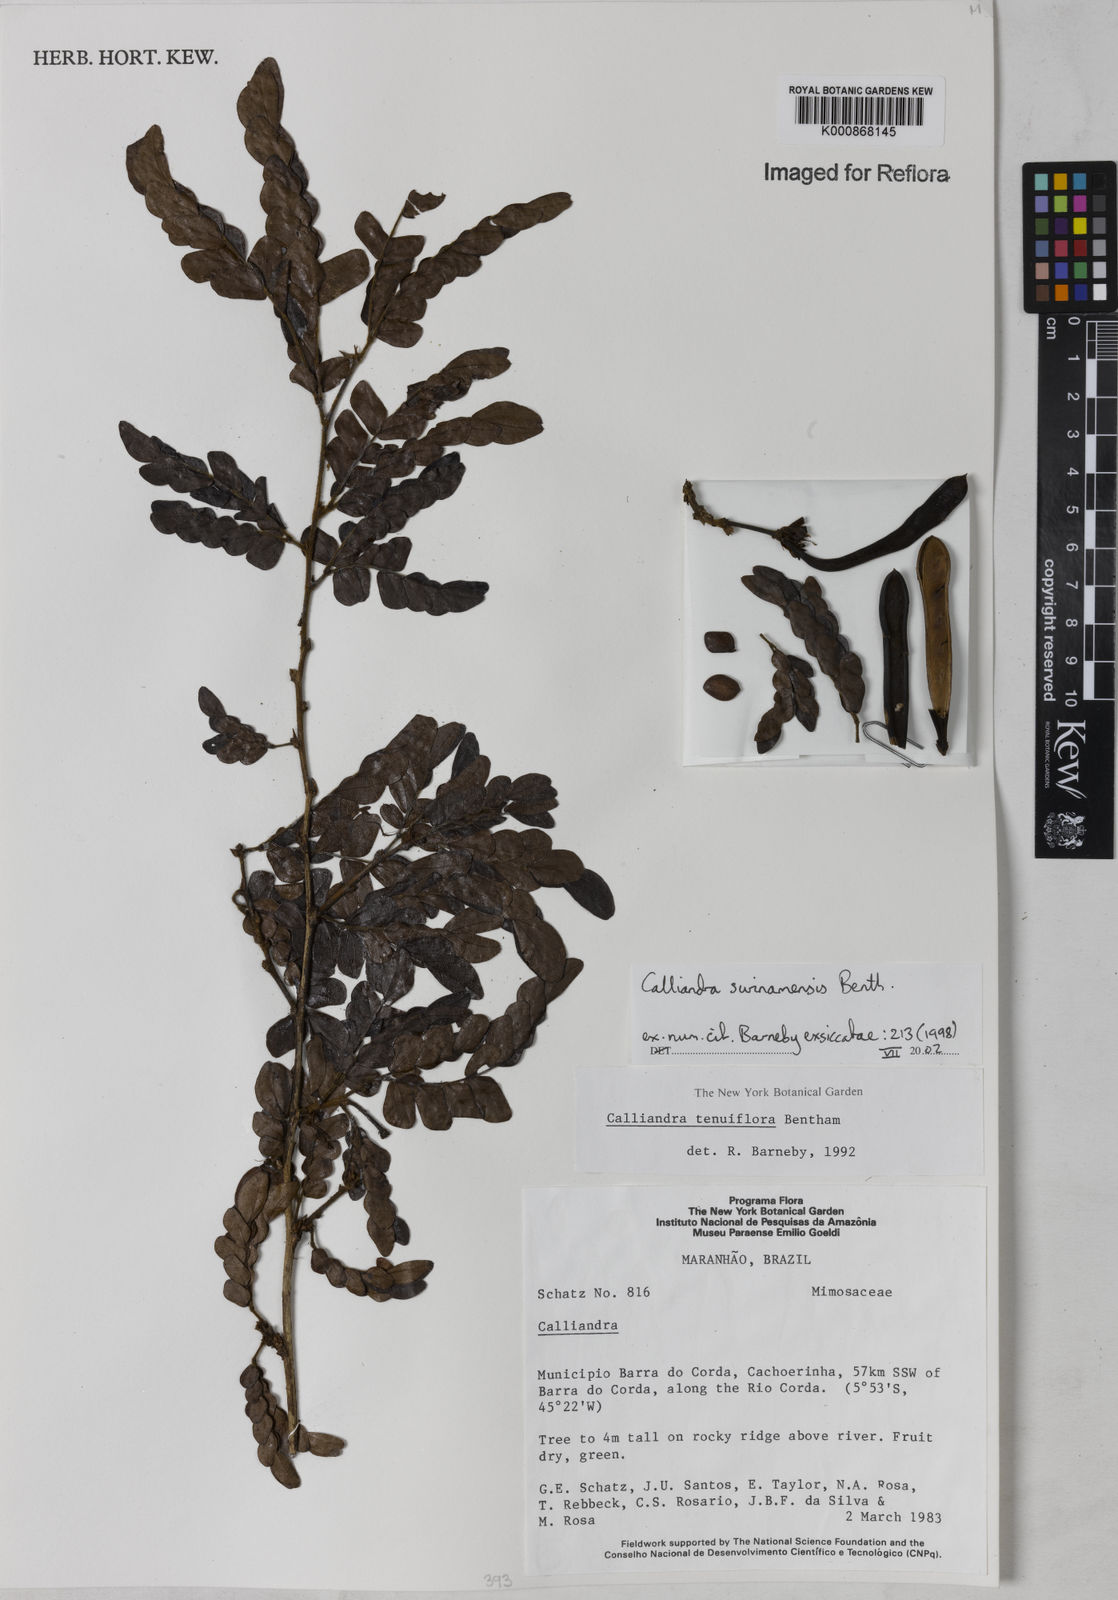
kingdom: Plantae
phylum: Tracheophyta
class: Magnoliopsida
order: Fabales
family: Fabaceae
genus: Calliandra
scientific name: Calliandra surinamensis
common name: Pink powder puff
